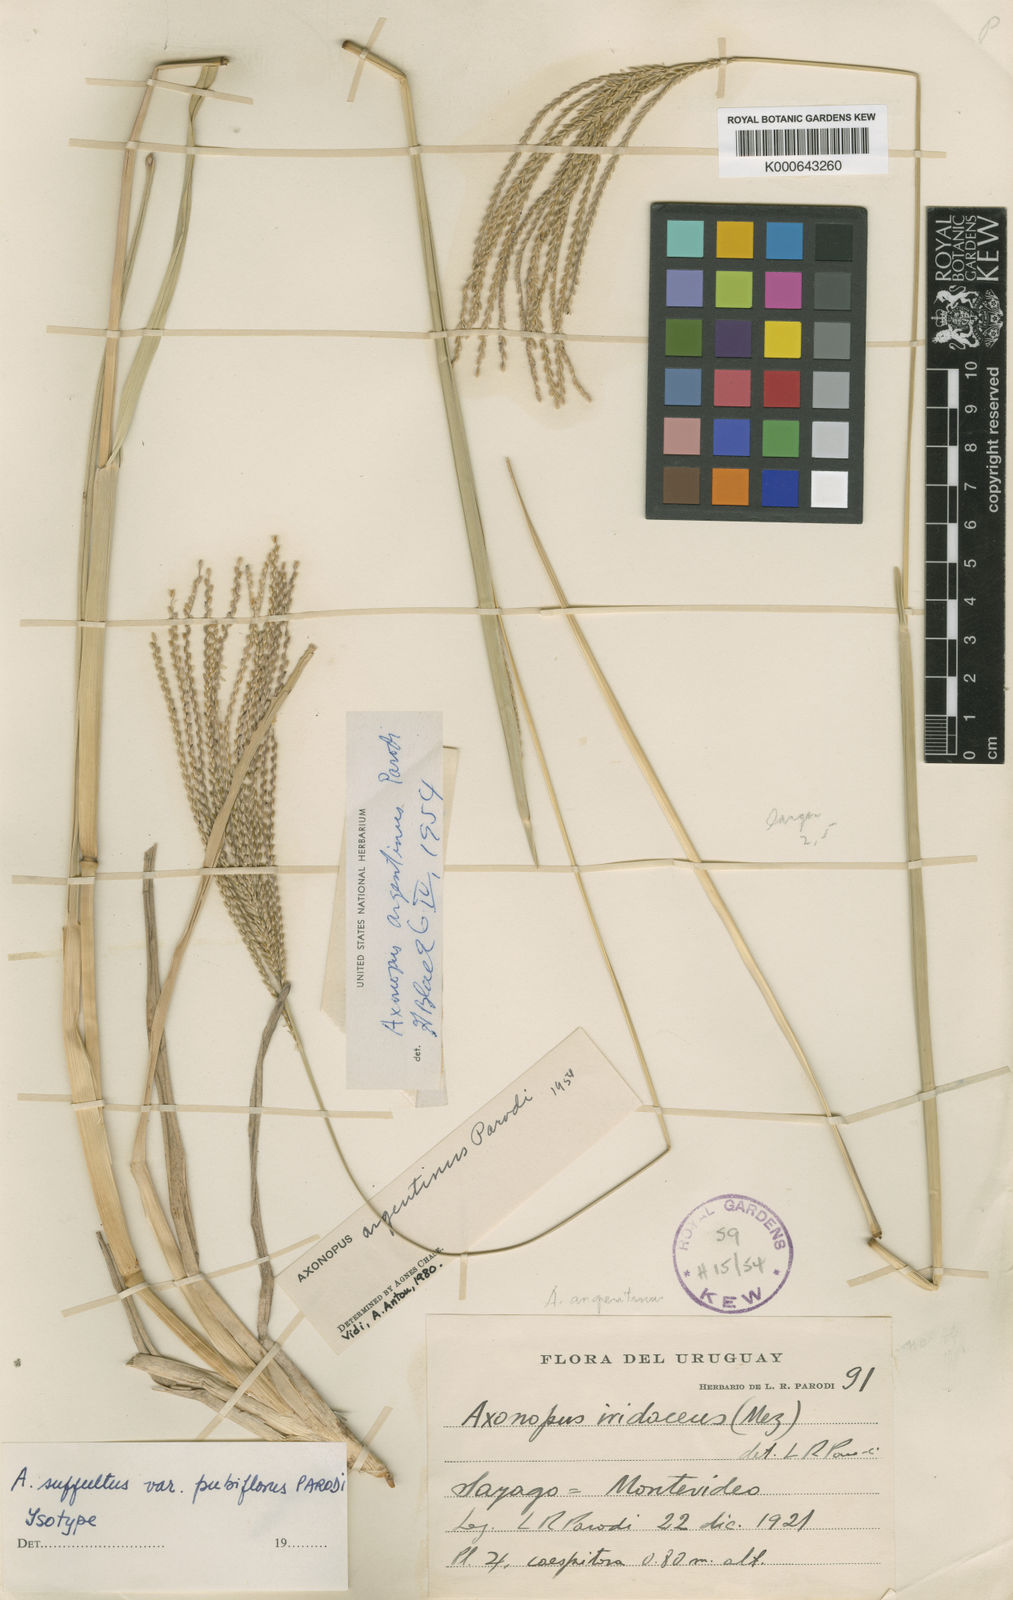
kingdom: Plantae
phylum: Tracheophyta
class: Liliopsida
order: Poales
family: Poaceae
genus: Axonopus
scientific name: Axonopus argentinus
